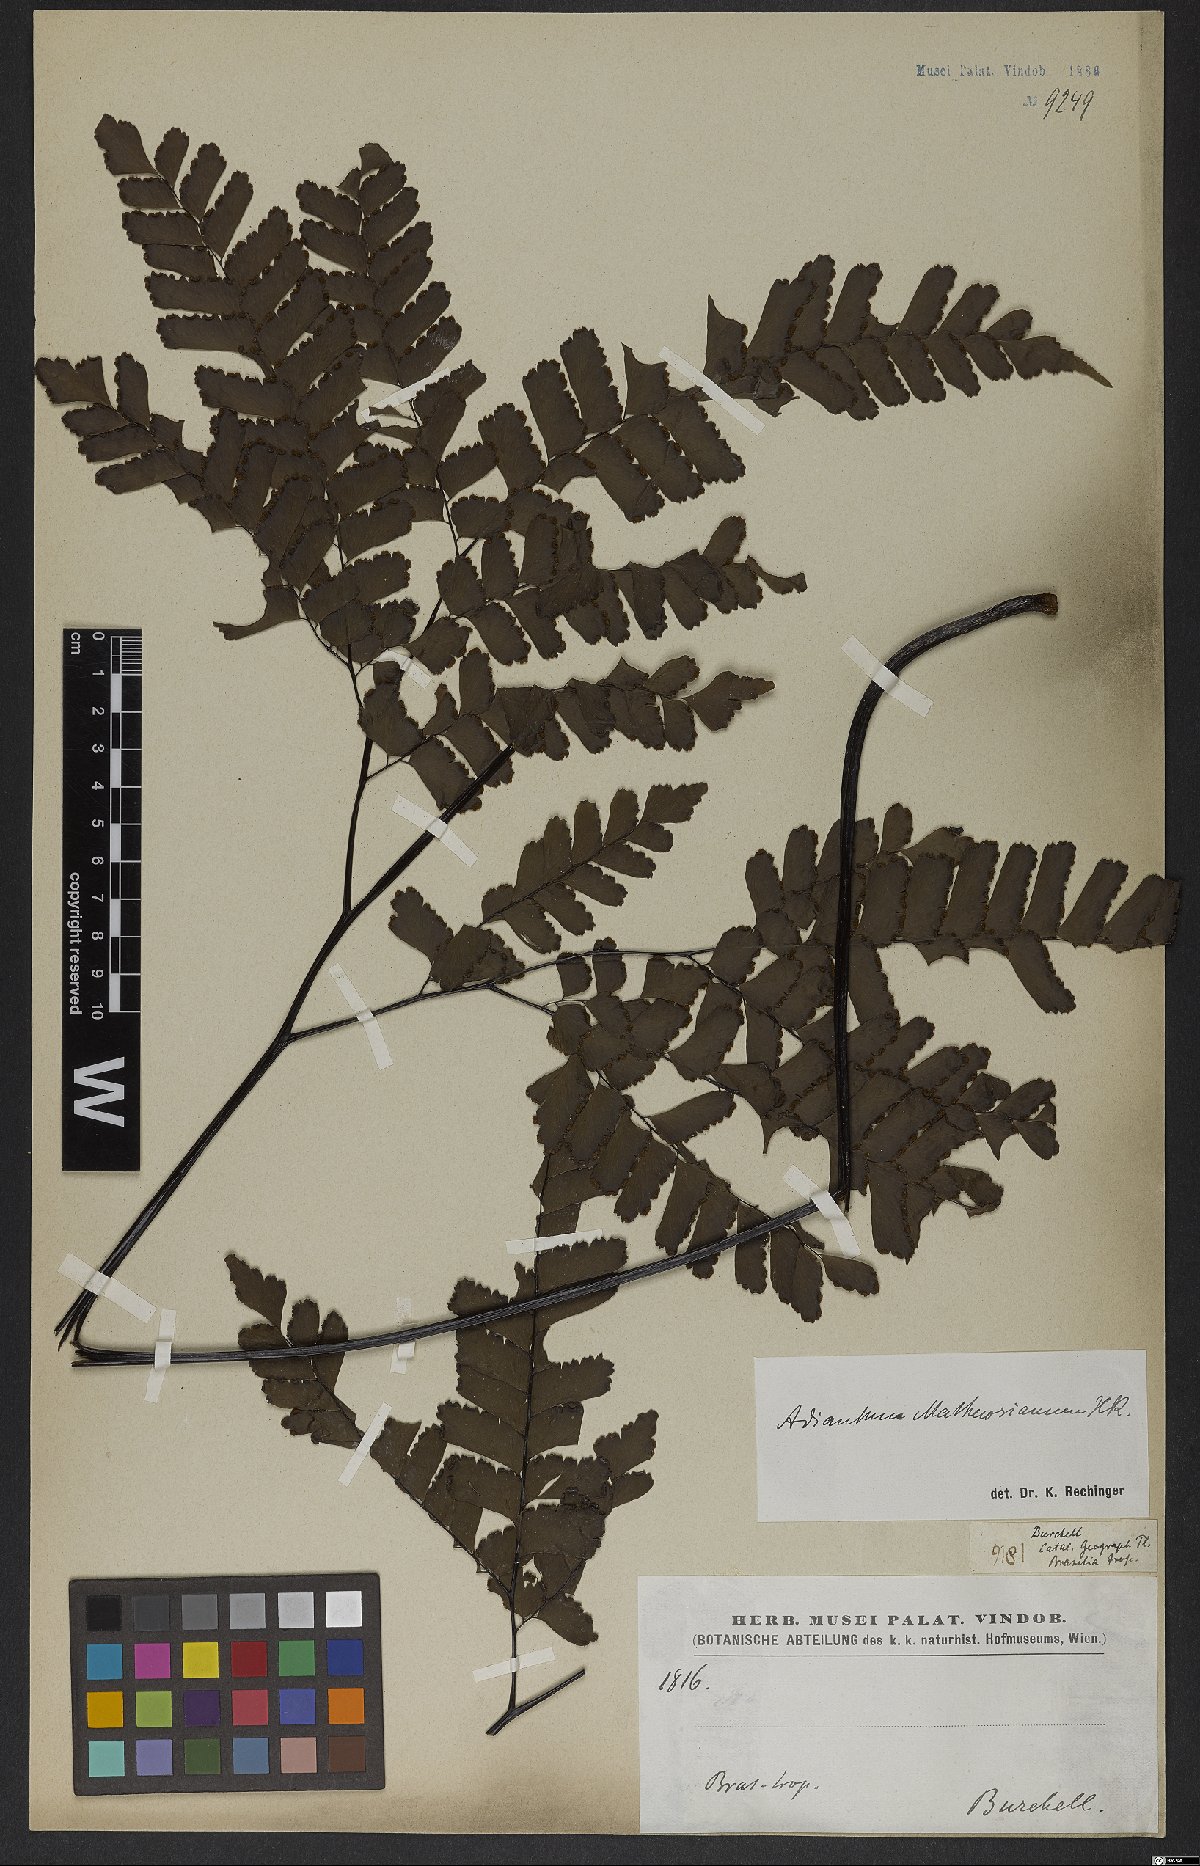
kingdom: Plantae
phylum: Tracheophyta
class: Polypodiopsida
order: Polypodiales
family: Pteridaceae
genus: Adiantum
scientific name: Adiantum mathewsianum
